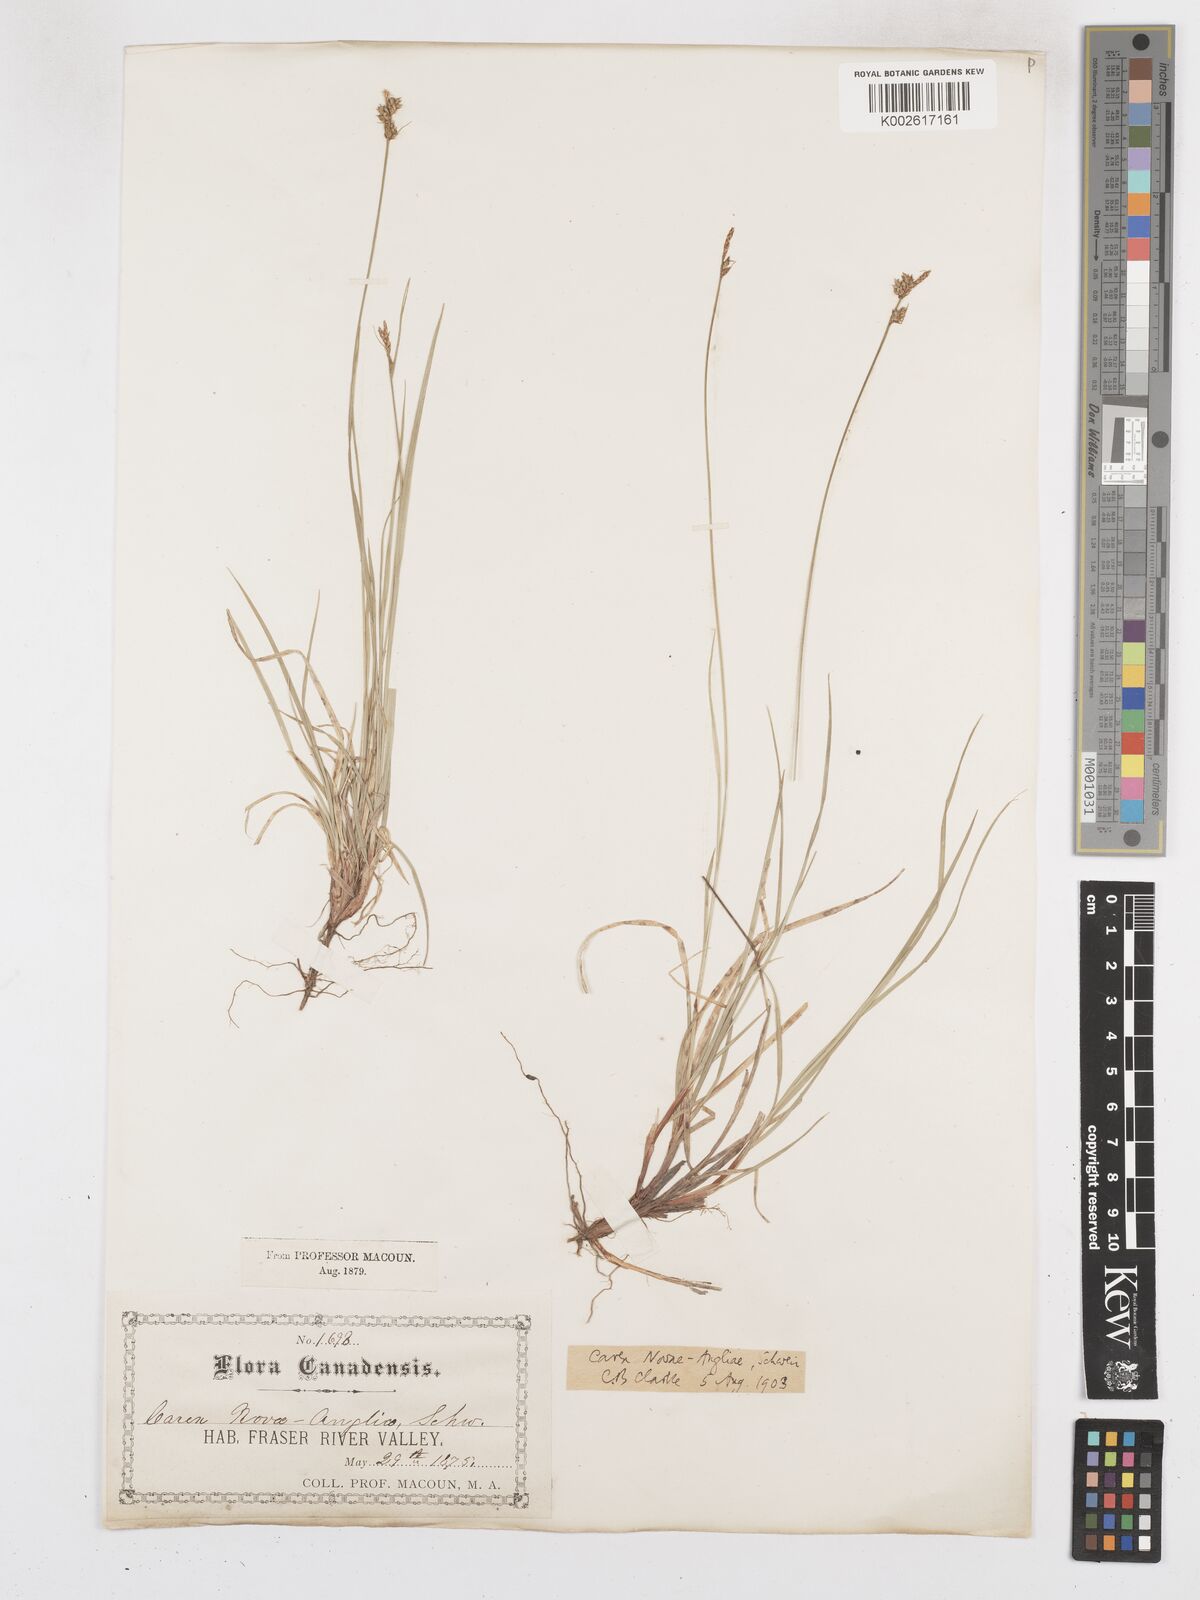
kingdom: Plantae
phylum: Tracheophyta
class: Liliopsida
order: Poales
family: Cyperaceae
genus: Carex
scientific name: Carex novae-angliae
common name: New england sedge
